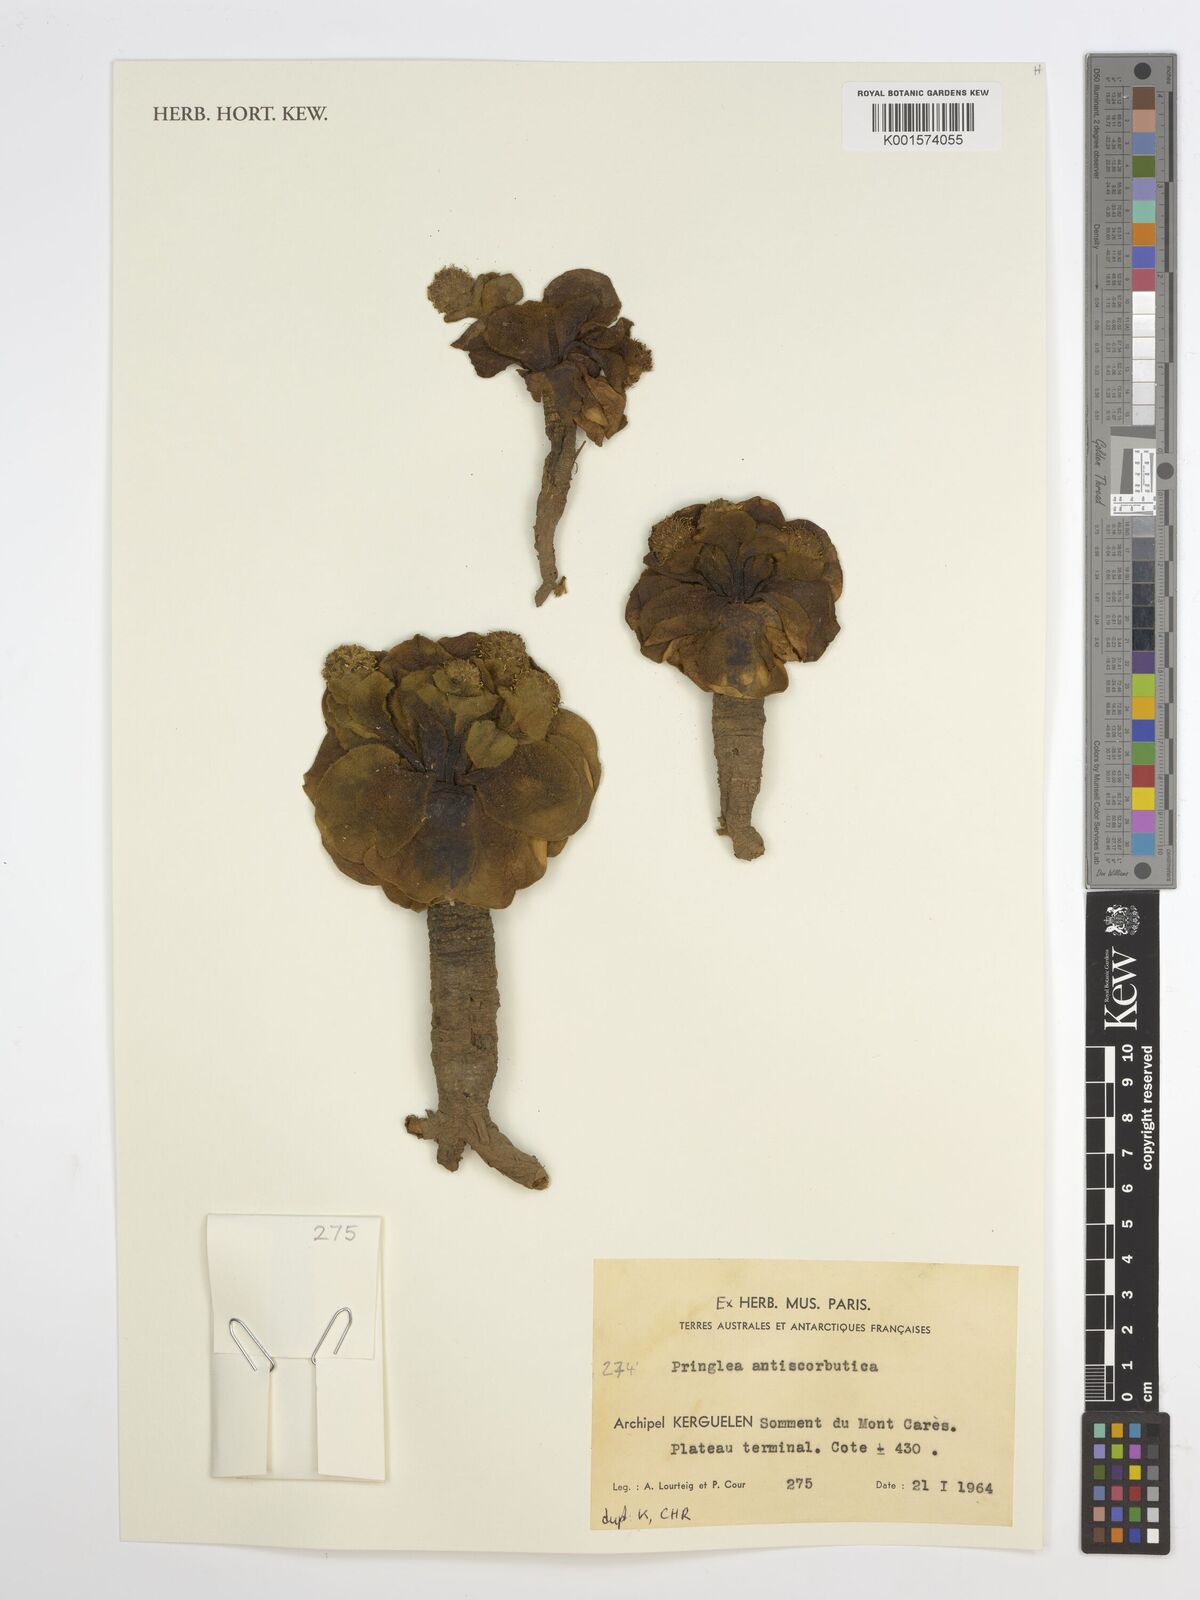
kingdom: Plantae
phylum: Tracheophyta
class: Magnoliopsida
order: Brassicales
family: Brassicaceae
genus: Pringlea
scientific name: Pringlea antiscorbutica
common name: Kerguelen-cabbage
